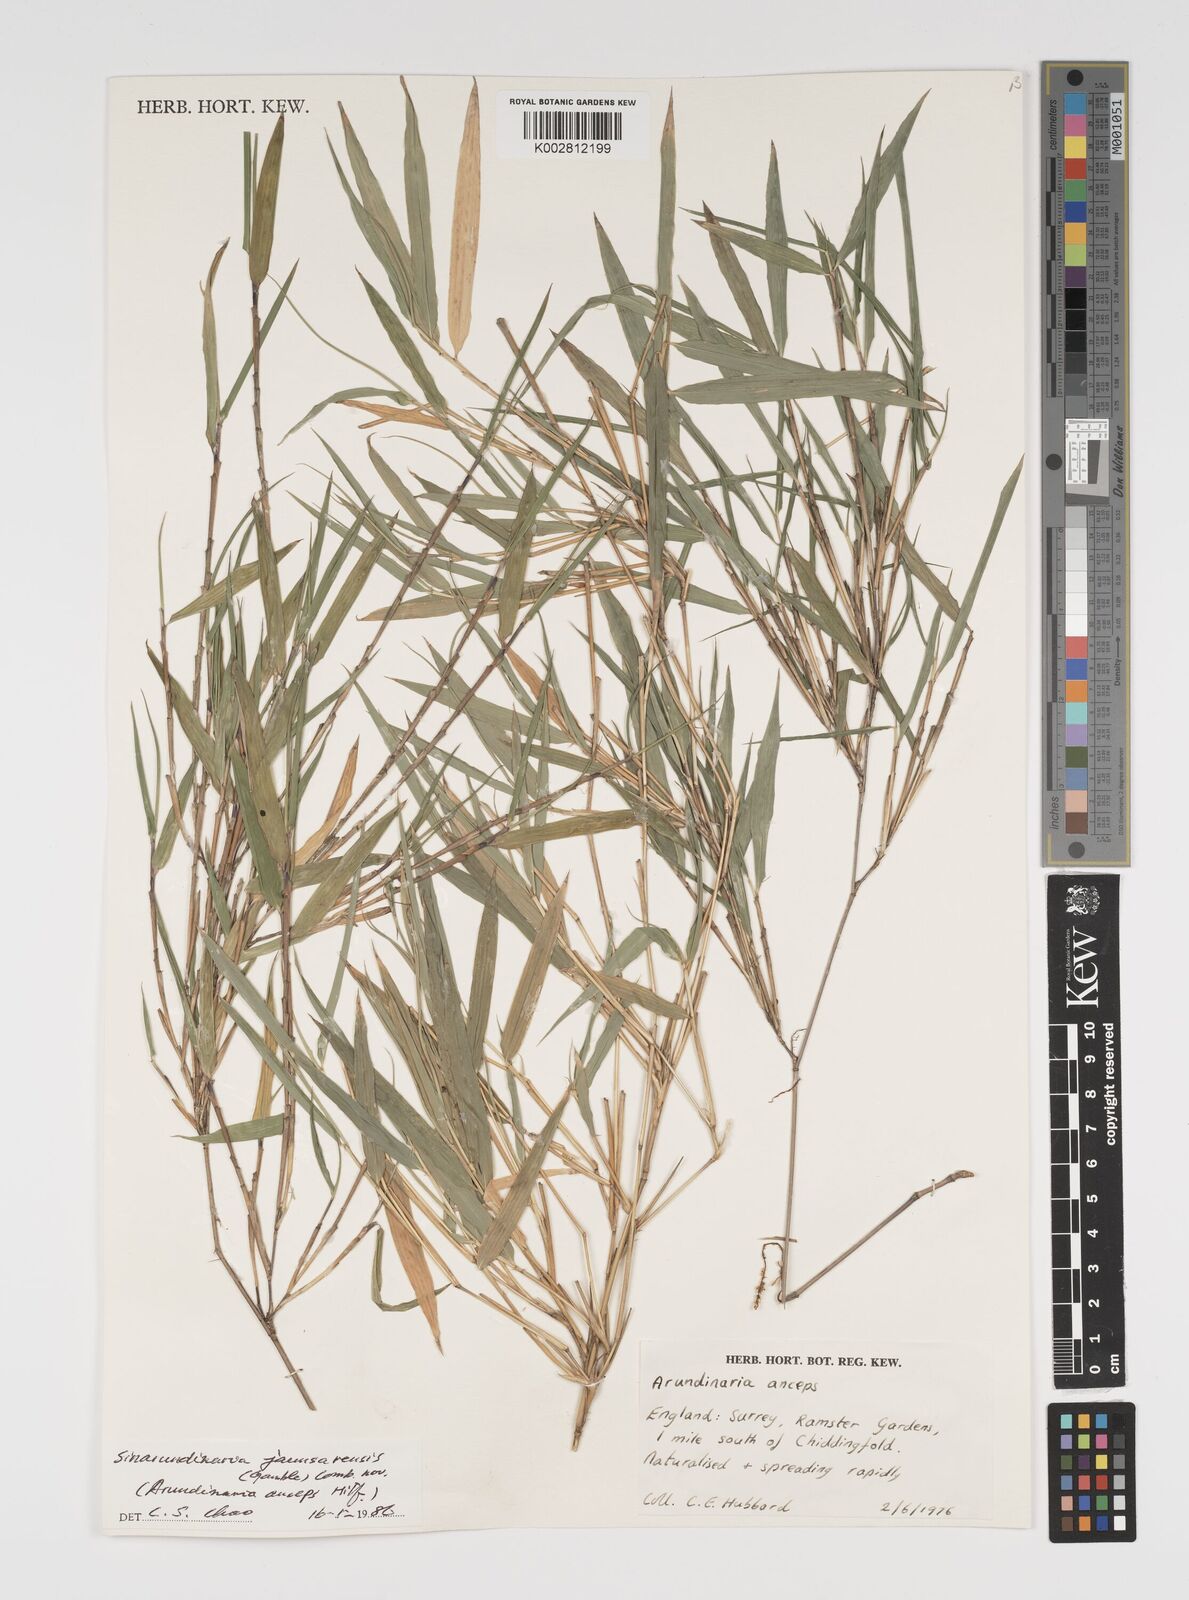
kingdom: Plantae
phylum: Tracheophyta
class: Liliopsida
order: Poales
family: Poaceae
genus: Yushania
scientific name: Yushania anceps
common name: Indian fountain-bamboo
